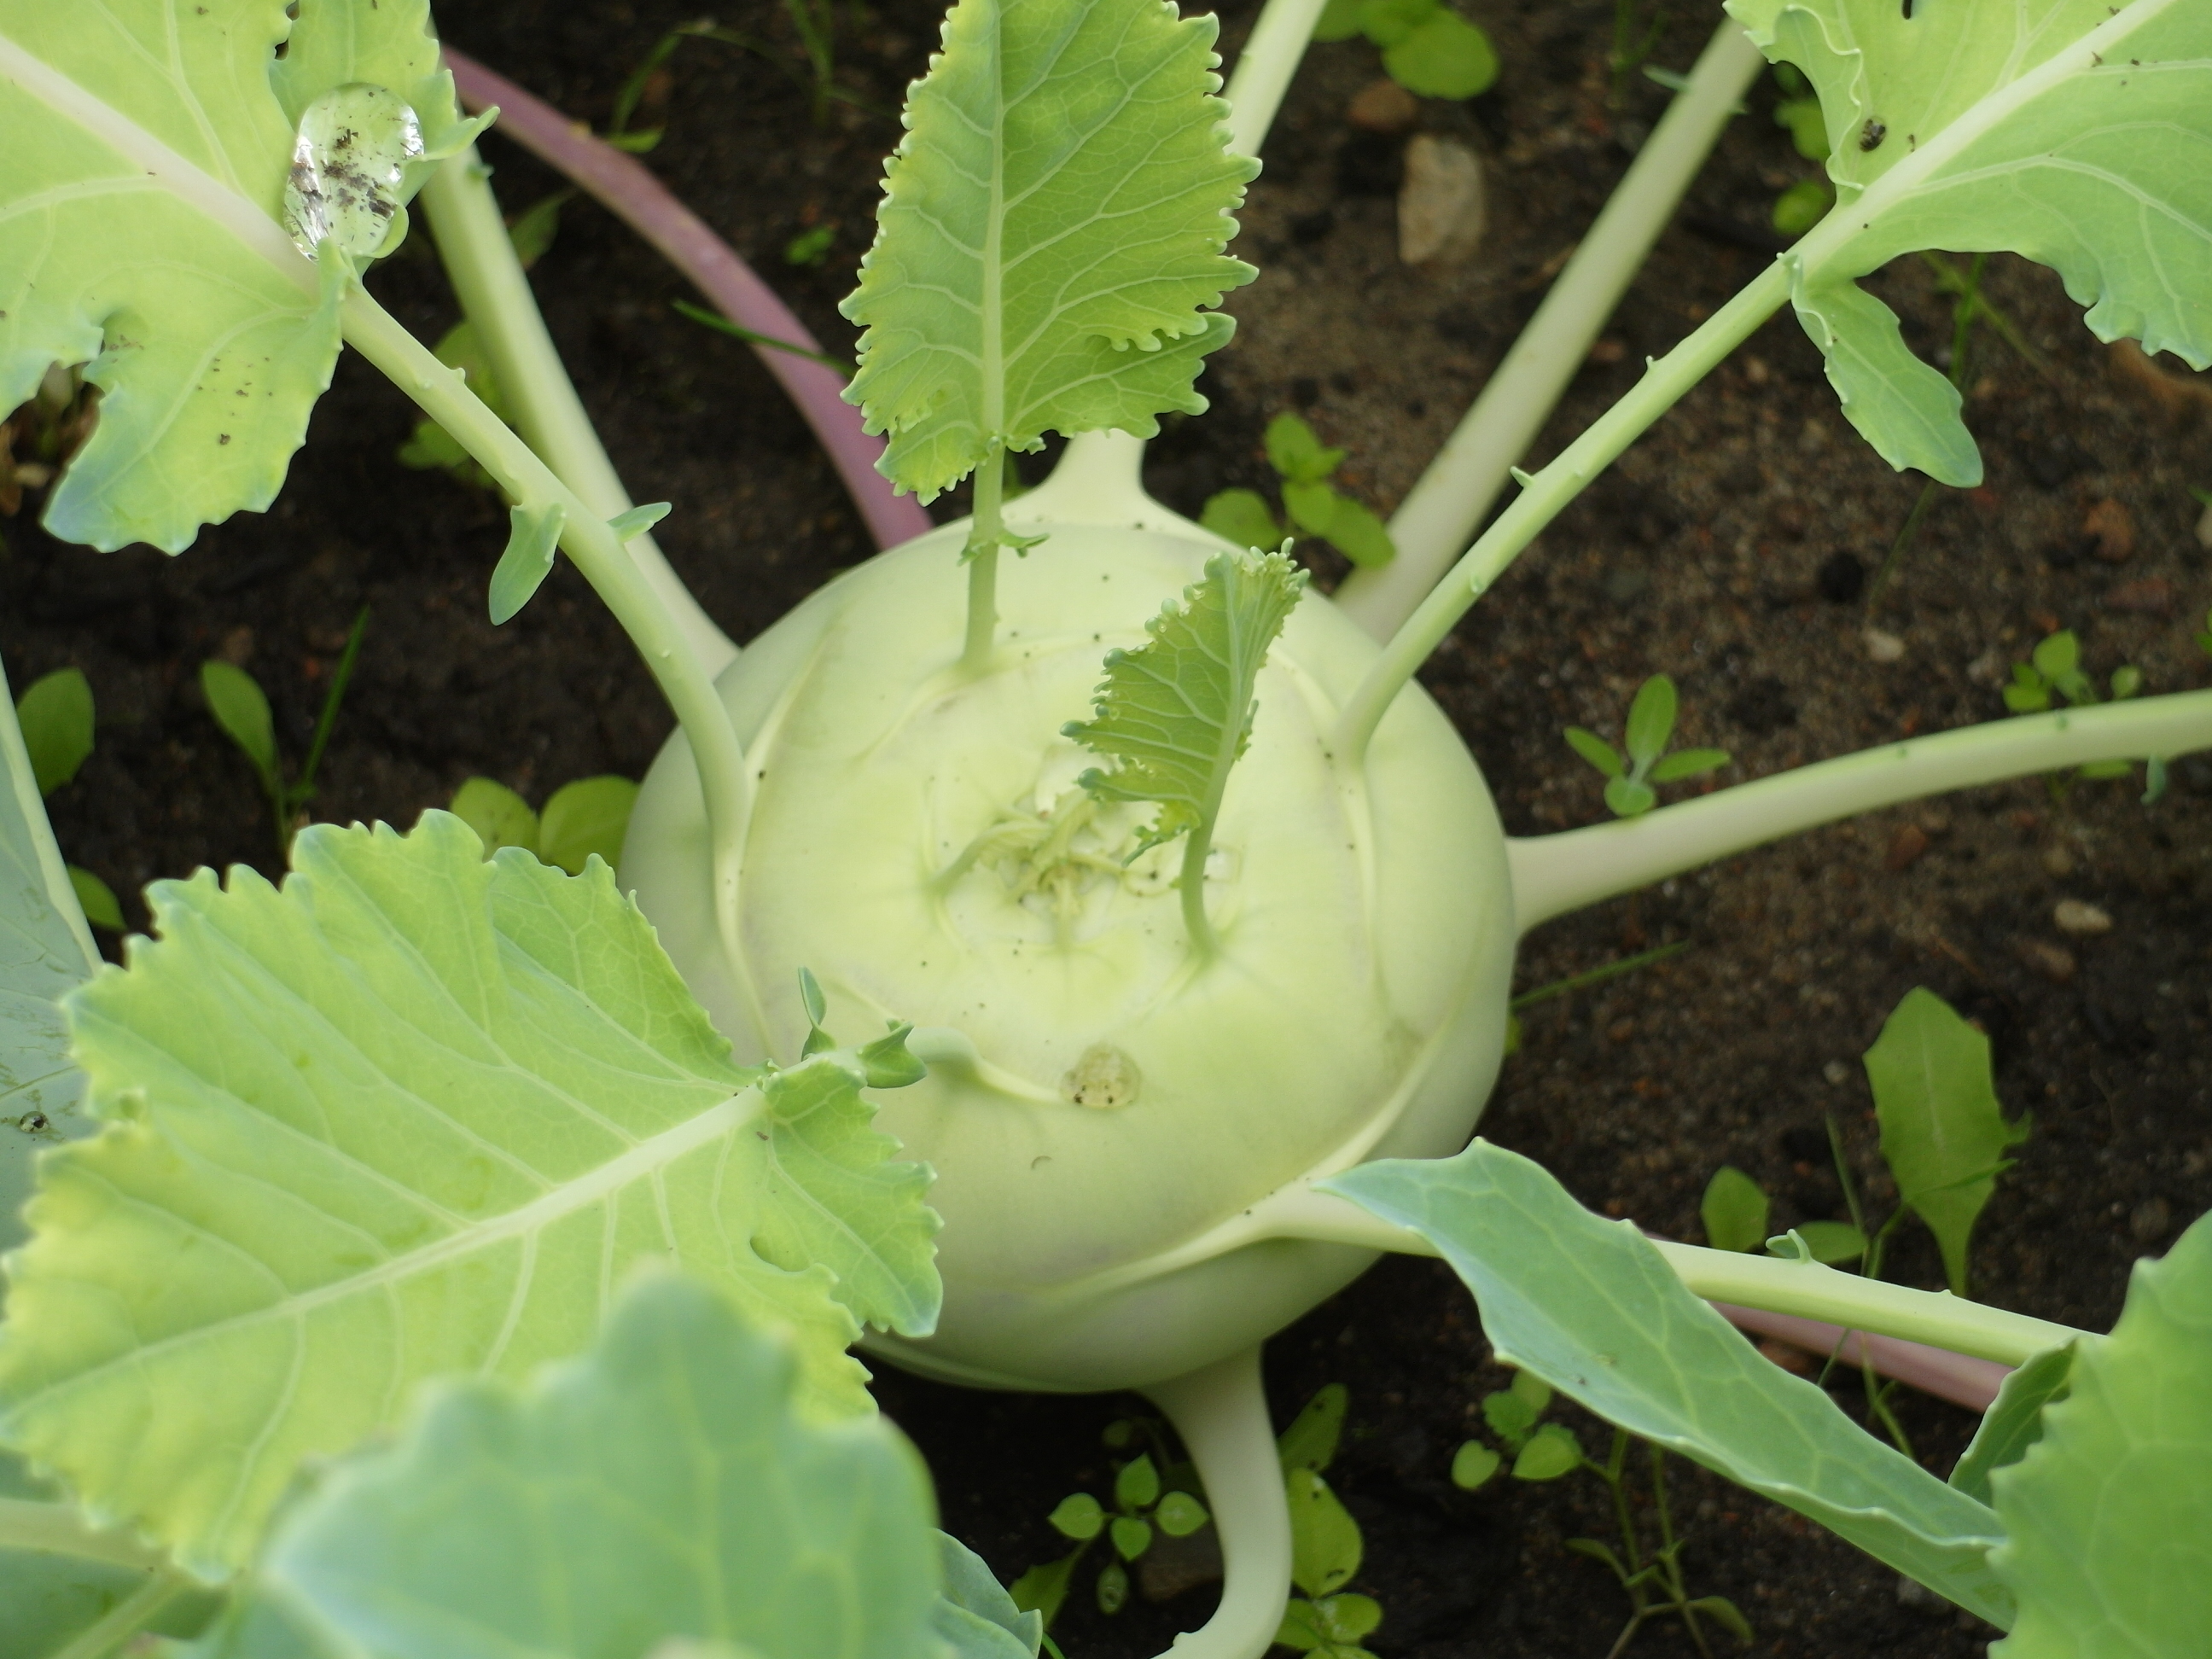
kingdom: Plantae
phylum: Tracheophyta
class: Magnoliopsida
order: Brassicales
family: Brassicaceae
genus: Brassica
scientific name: Brassica oleracea
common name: Cabbage
